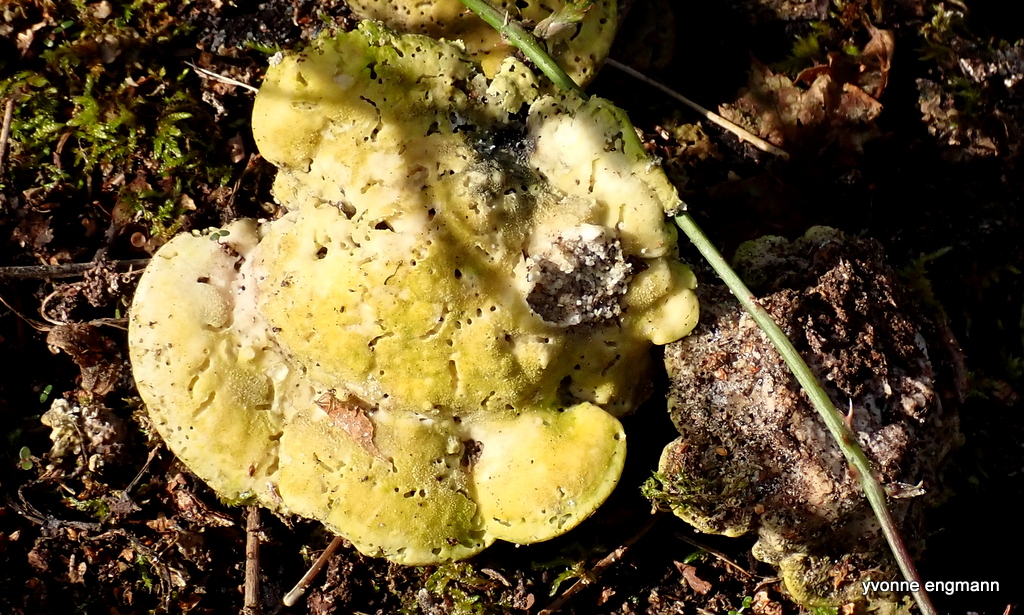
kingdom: Fungi
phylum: Basidiomycota
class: Agaricomycetes
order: Polyporales
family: Polyporaceae
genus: Trametes
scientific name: Trametes gibbosa
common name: puklet læderporesvamp
